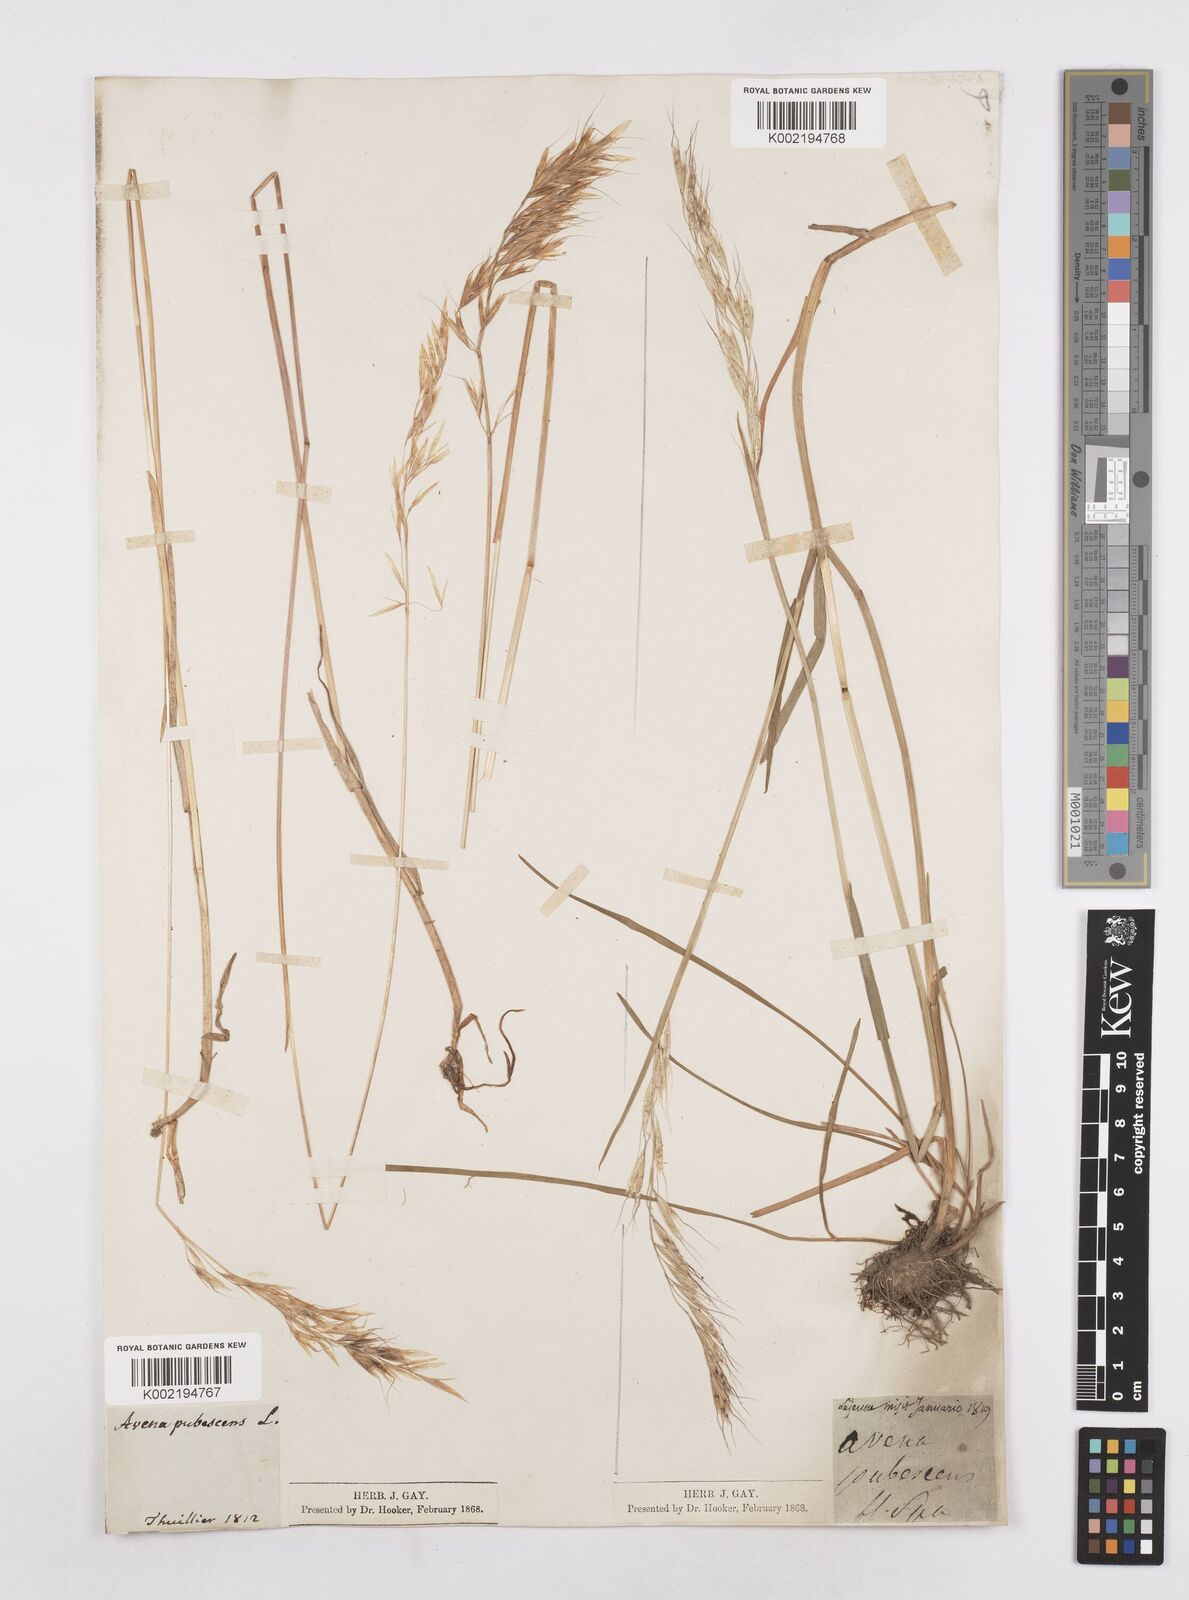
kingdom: Plantae
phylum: Tracheophyta
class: Liliopsida
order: Poales
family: Poaceae
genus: Avenula
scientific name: Avenula pubescens
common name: Downy alpine oatgrass
